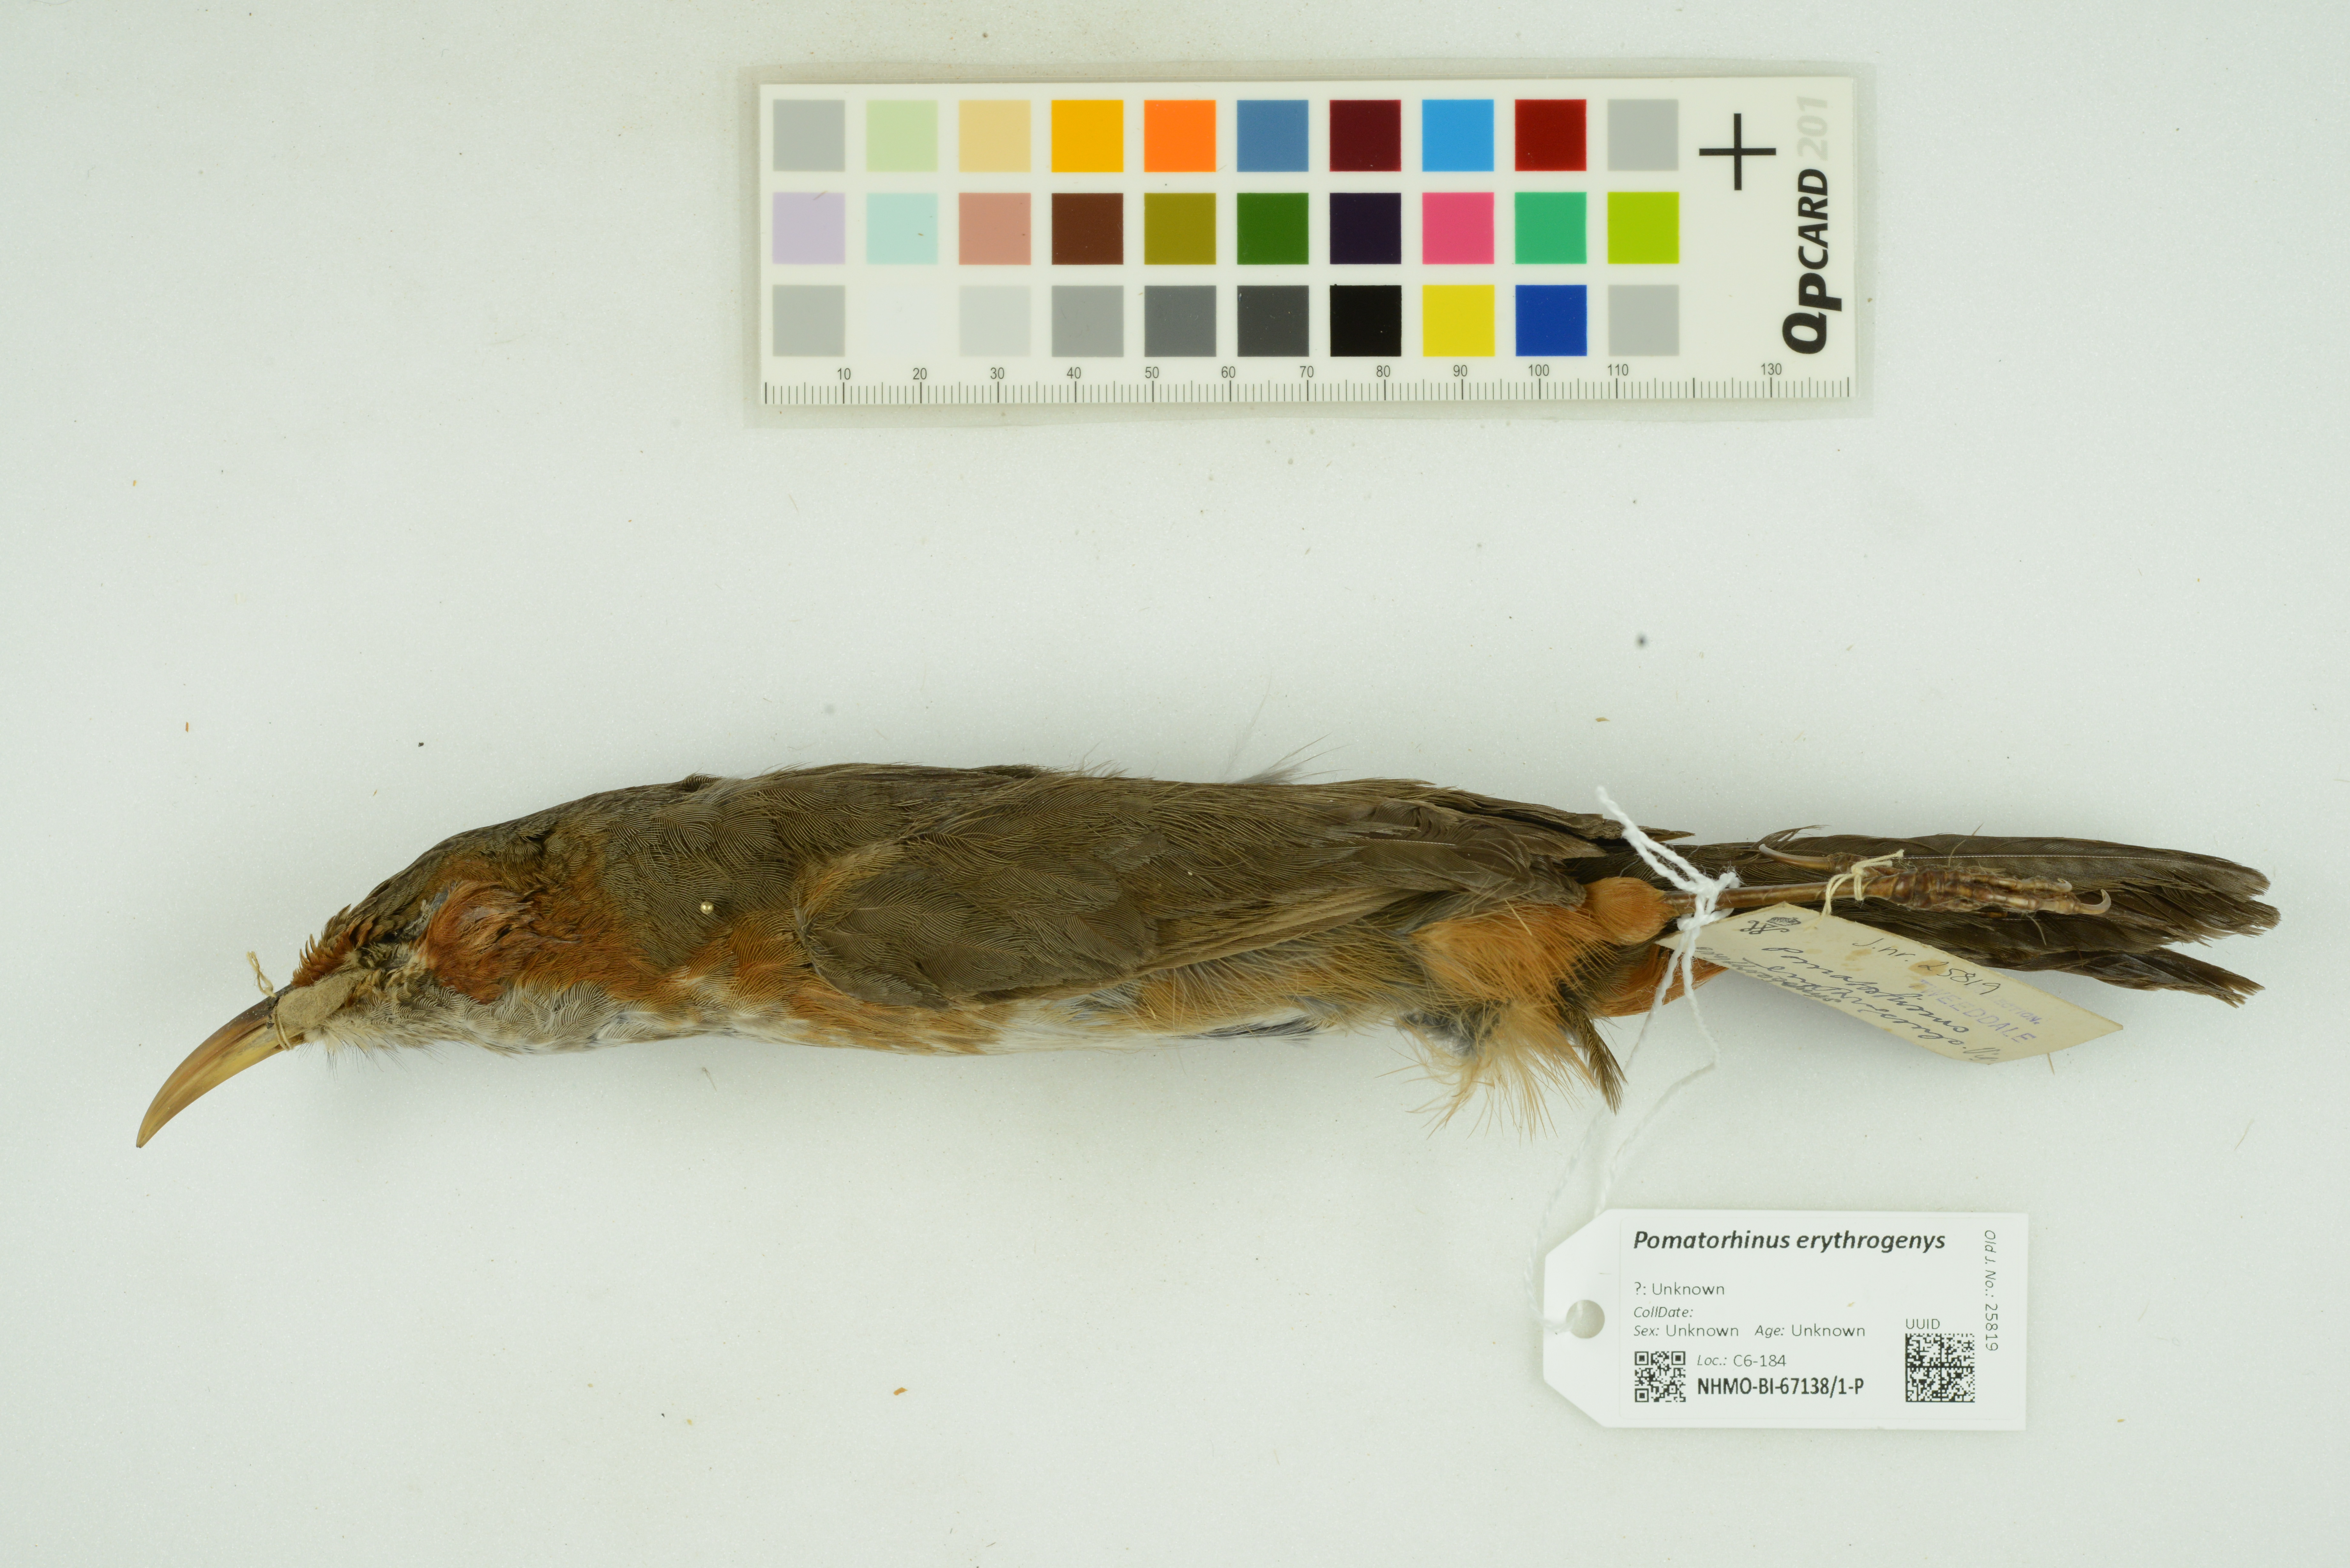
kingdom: Animalia
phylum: Chordata
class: Aves
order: Passeriformes
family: Timaliidae
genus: Pomatorhinus
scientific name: Pomatorhinus erythrogenys
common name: Rusty-cheeked scimitar babbler
